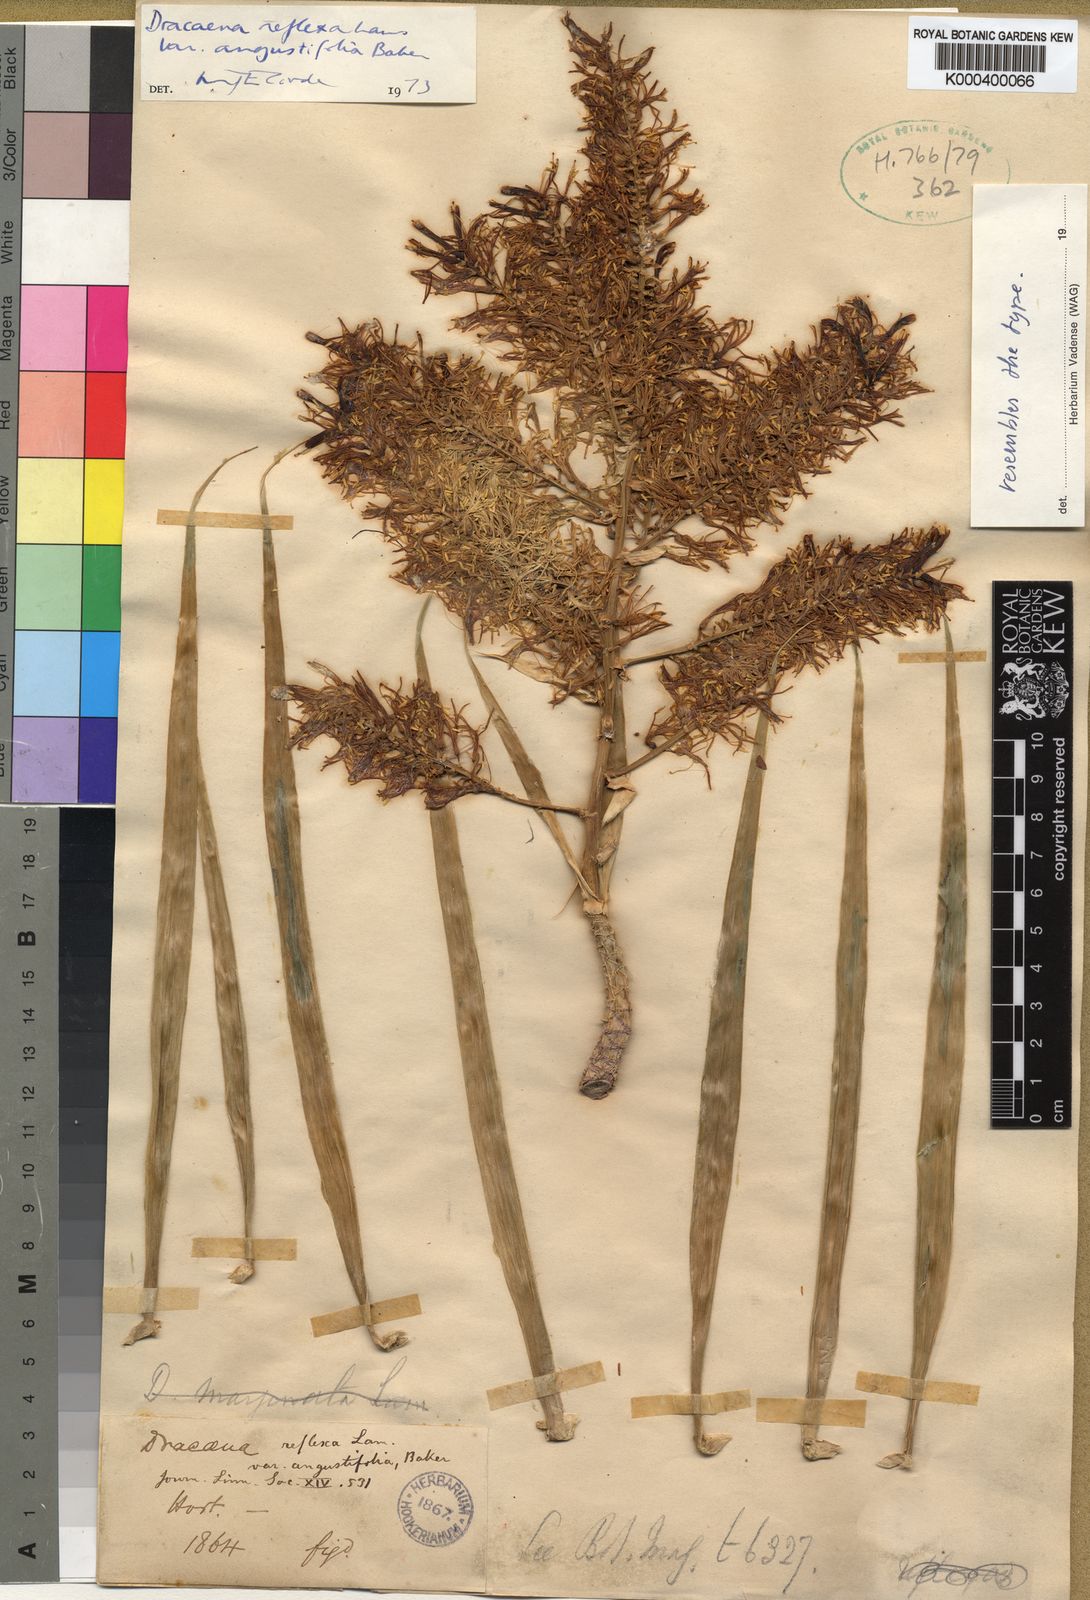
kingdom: Plantae
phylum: Tracheophyta
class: Liliopsida
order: Asparagales
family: Asparagaceae
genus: Dracaena
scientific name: Dracaena reflexa
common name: Song-of-india
